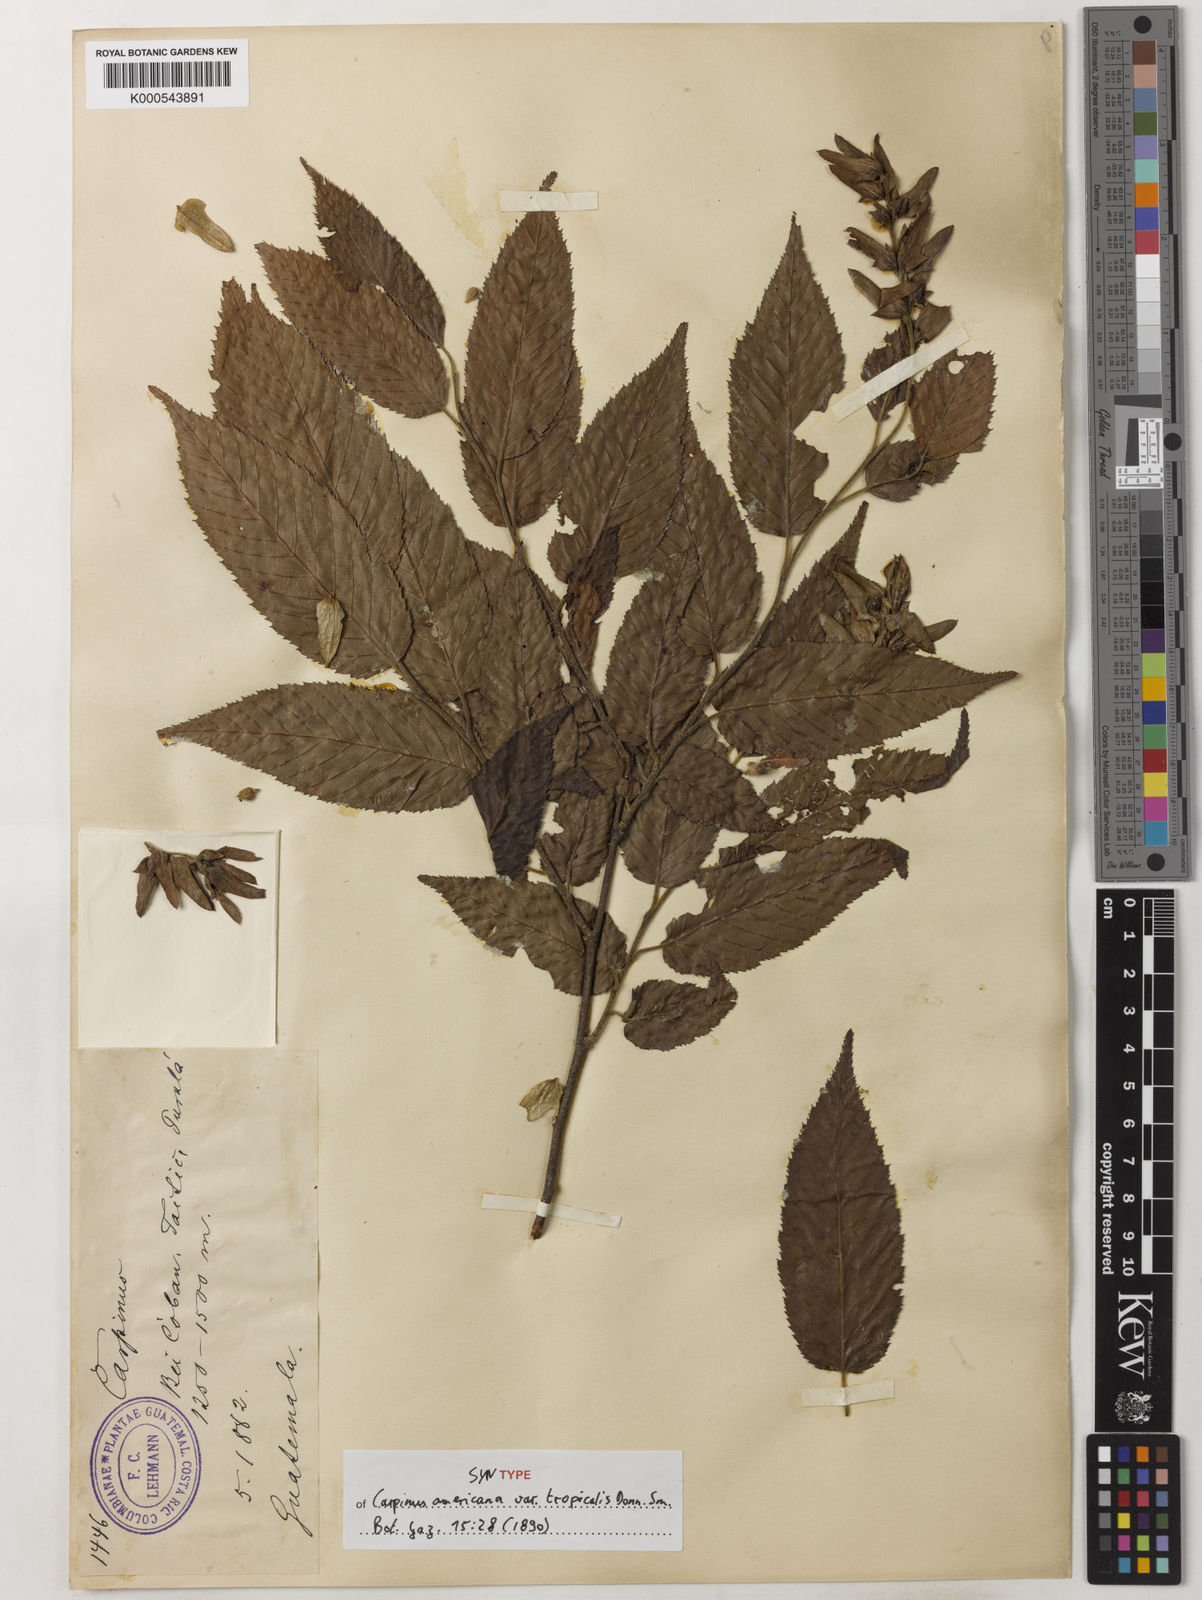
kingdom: Plantae
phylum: Tracheophyta
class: Magnoliopsida
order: Fagales
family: Betulaceae
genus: Carpinus
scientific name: Carpinus caroliniana
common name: American hornbeam
